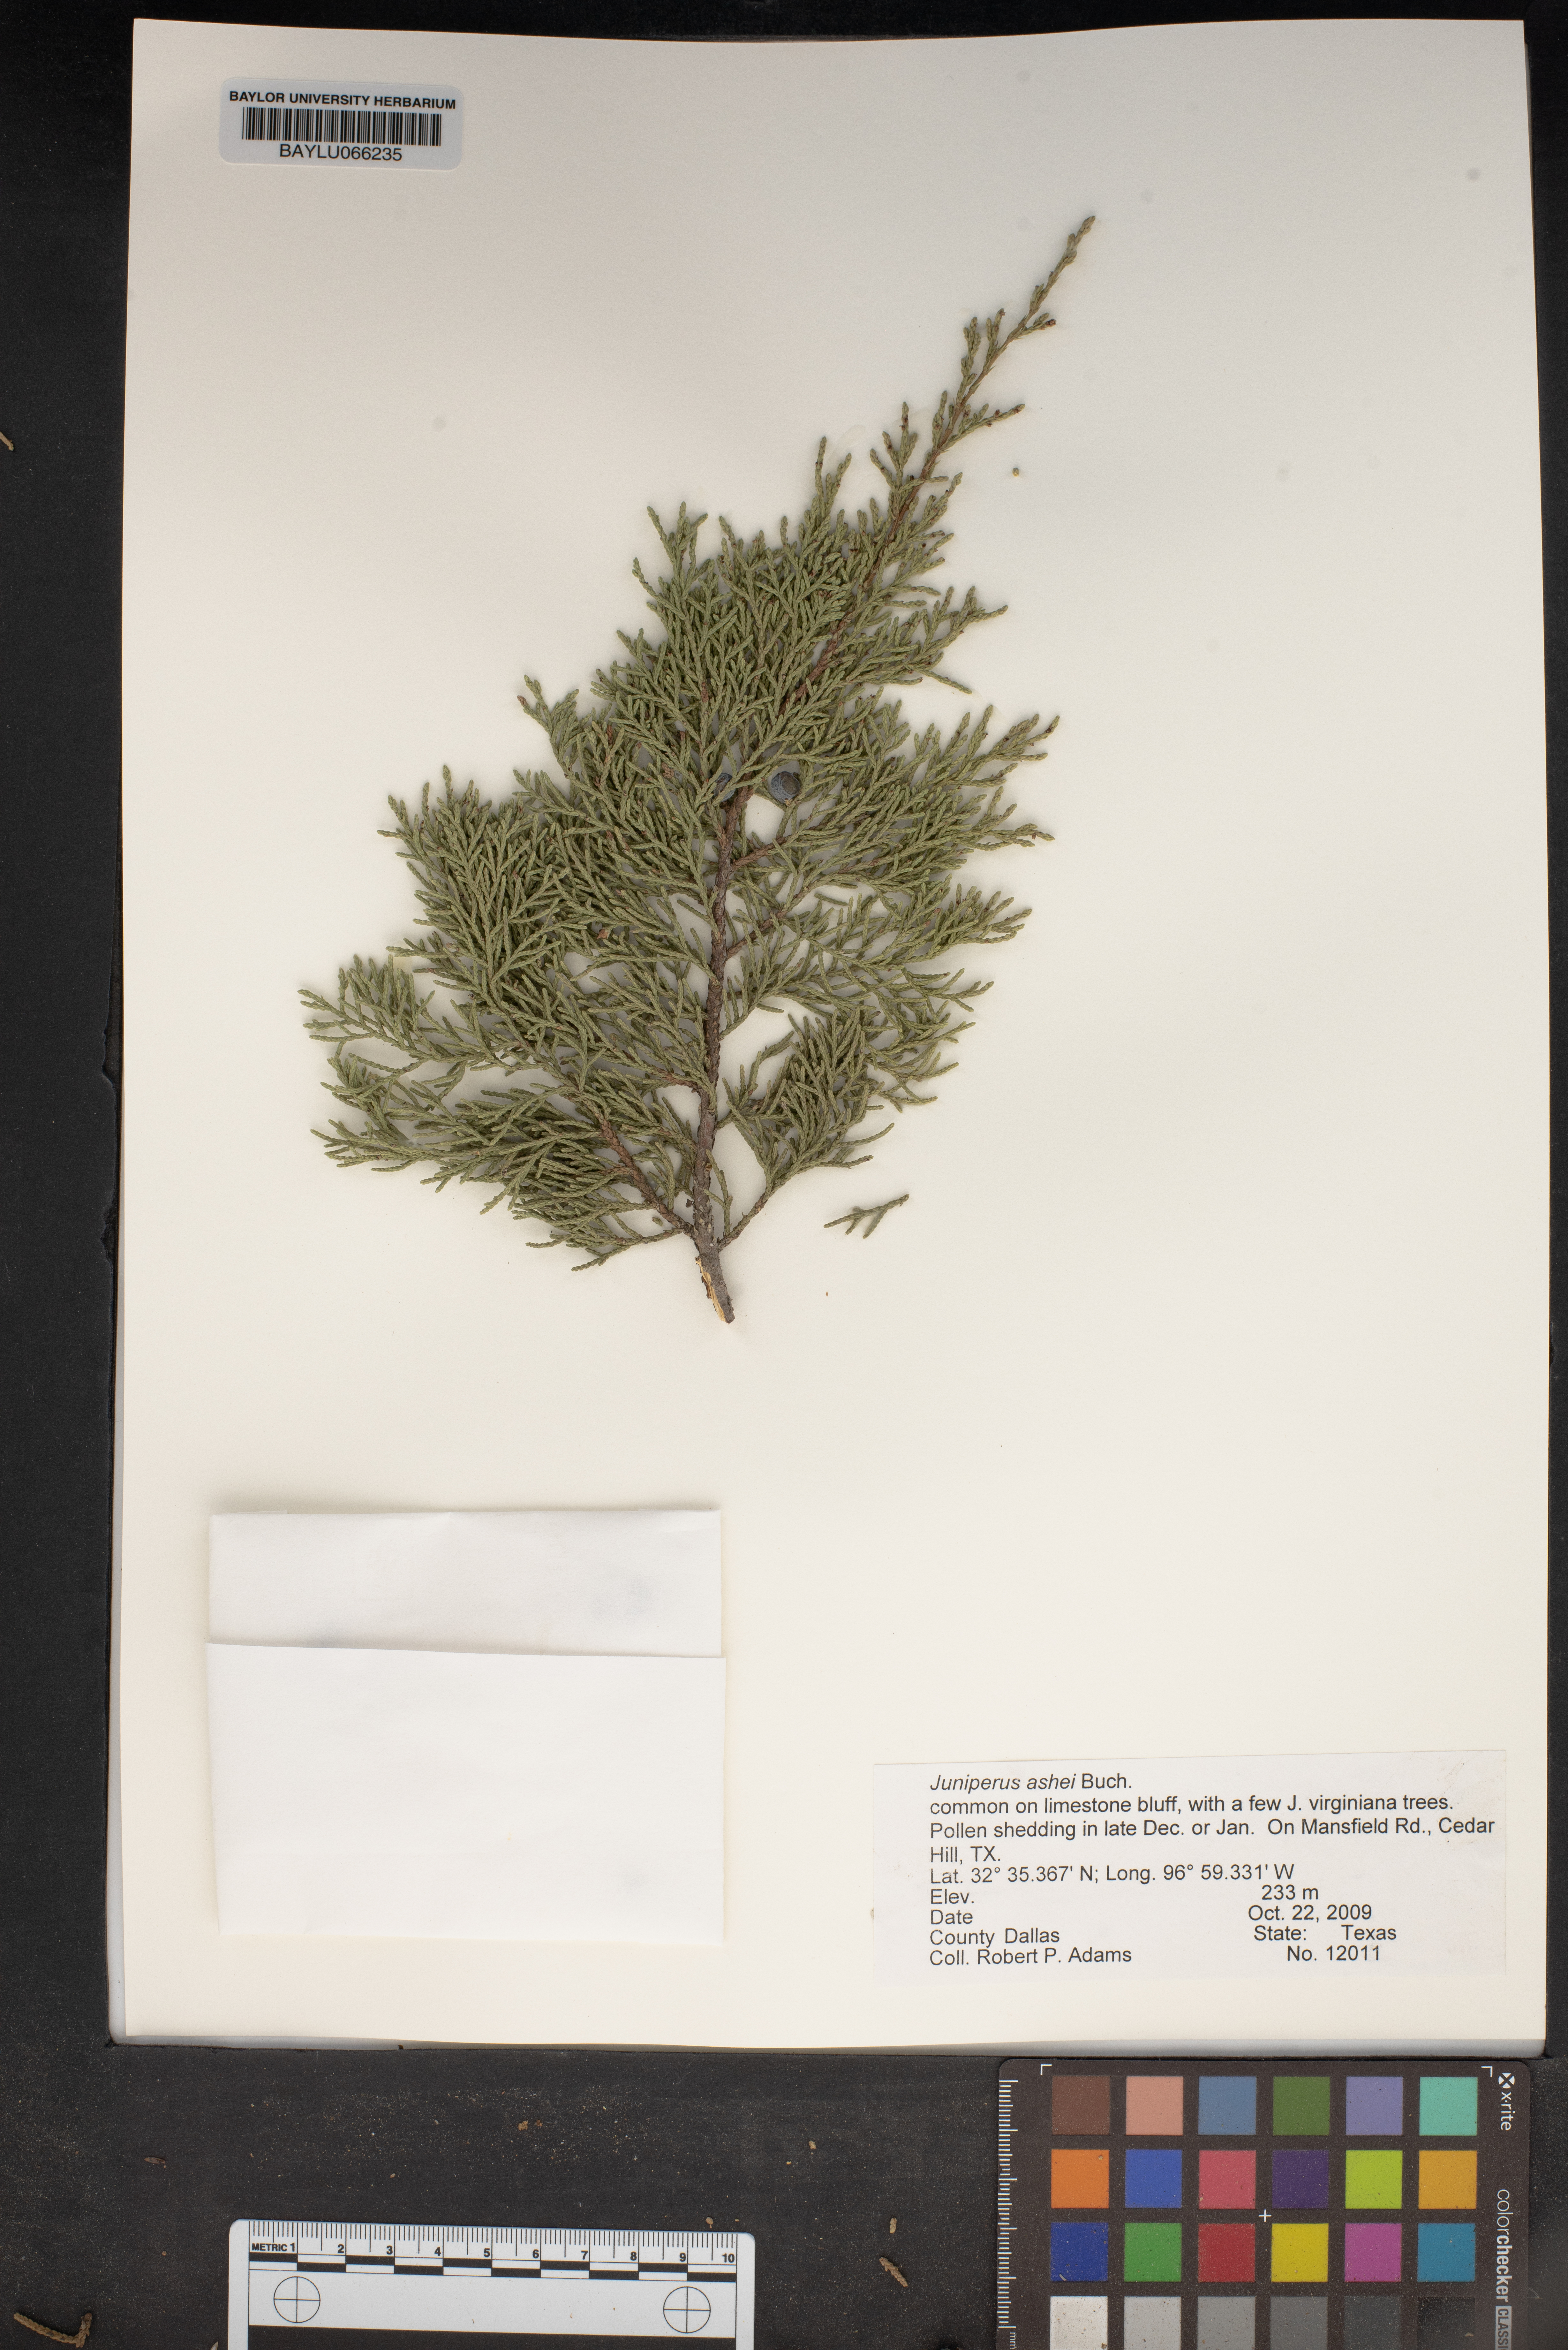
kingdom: Plantae
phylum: Tracheophyta
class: Pinopsida
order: Pinales
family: Cupressaceae
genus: Juniperus
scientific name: Juniperus ashei
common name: Mexican juniper
